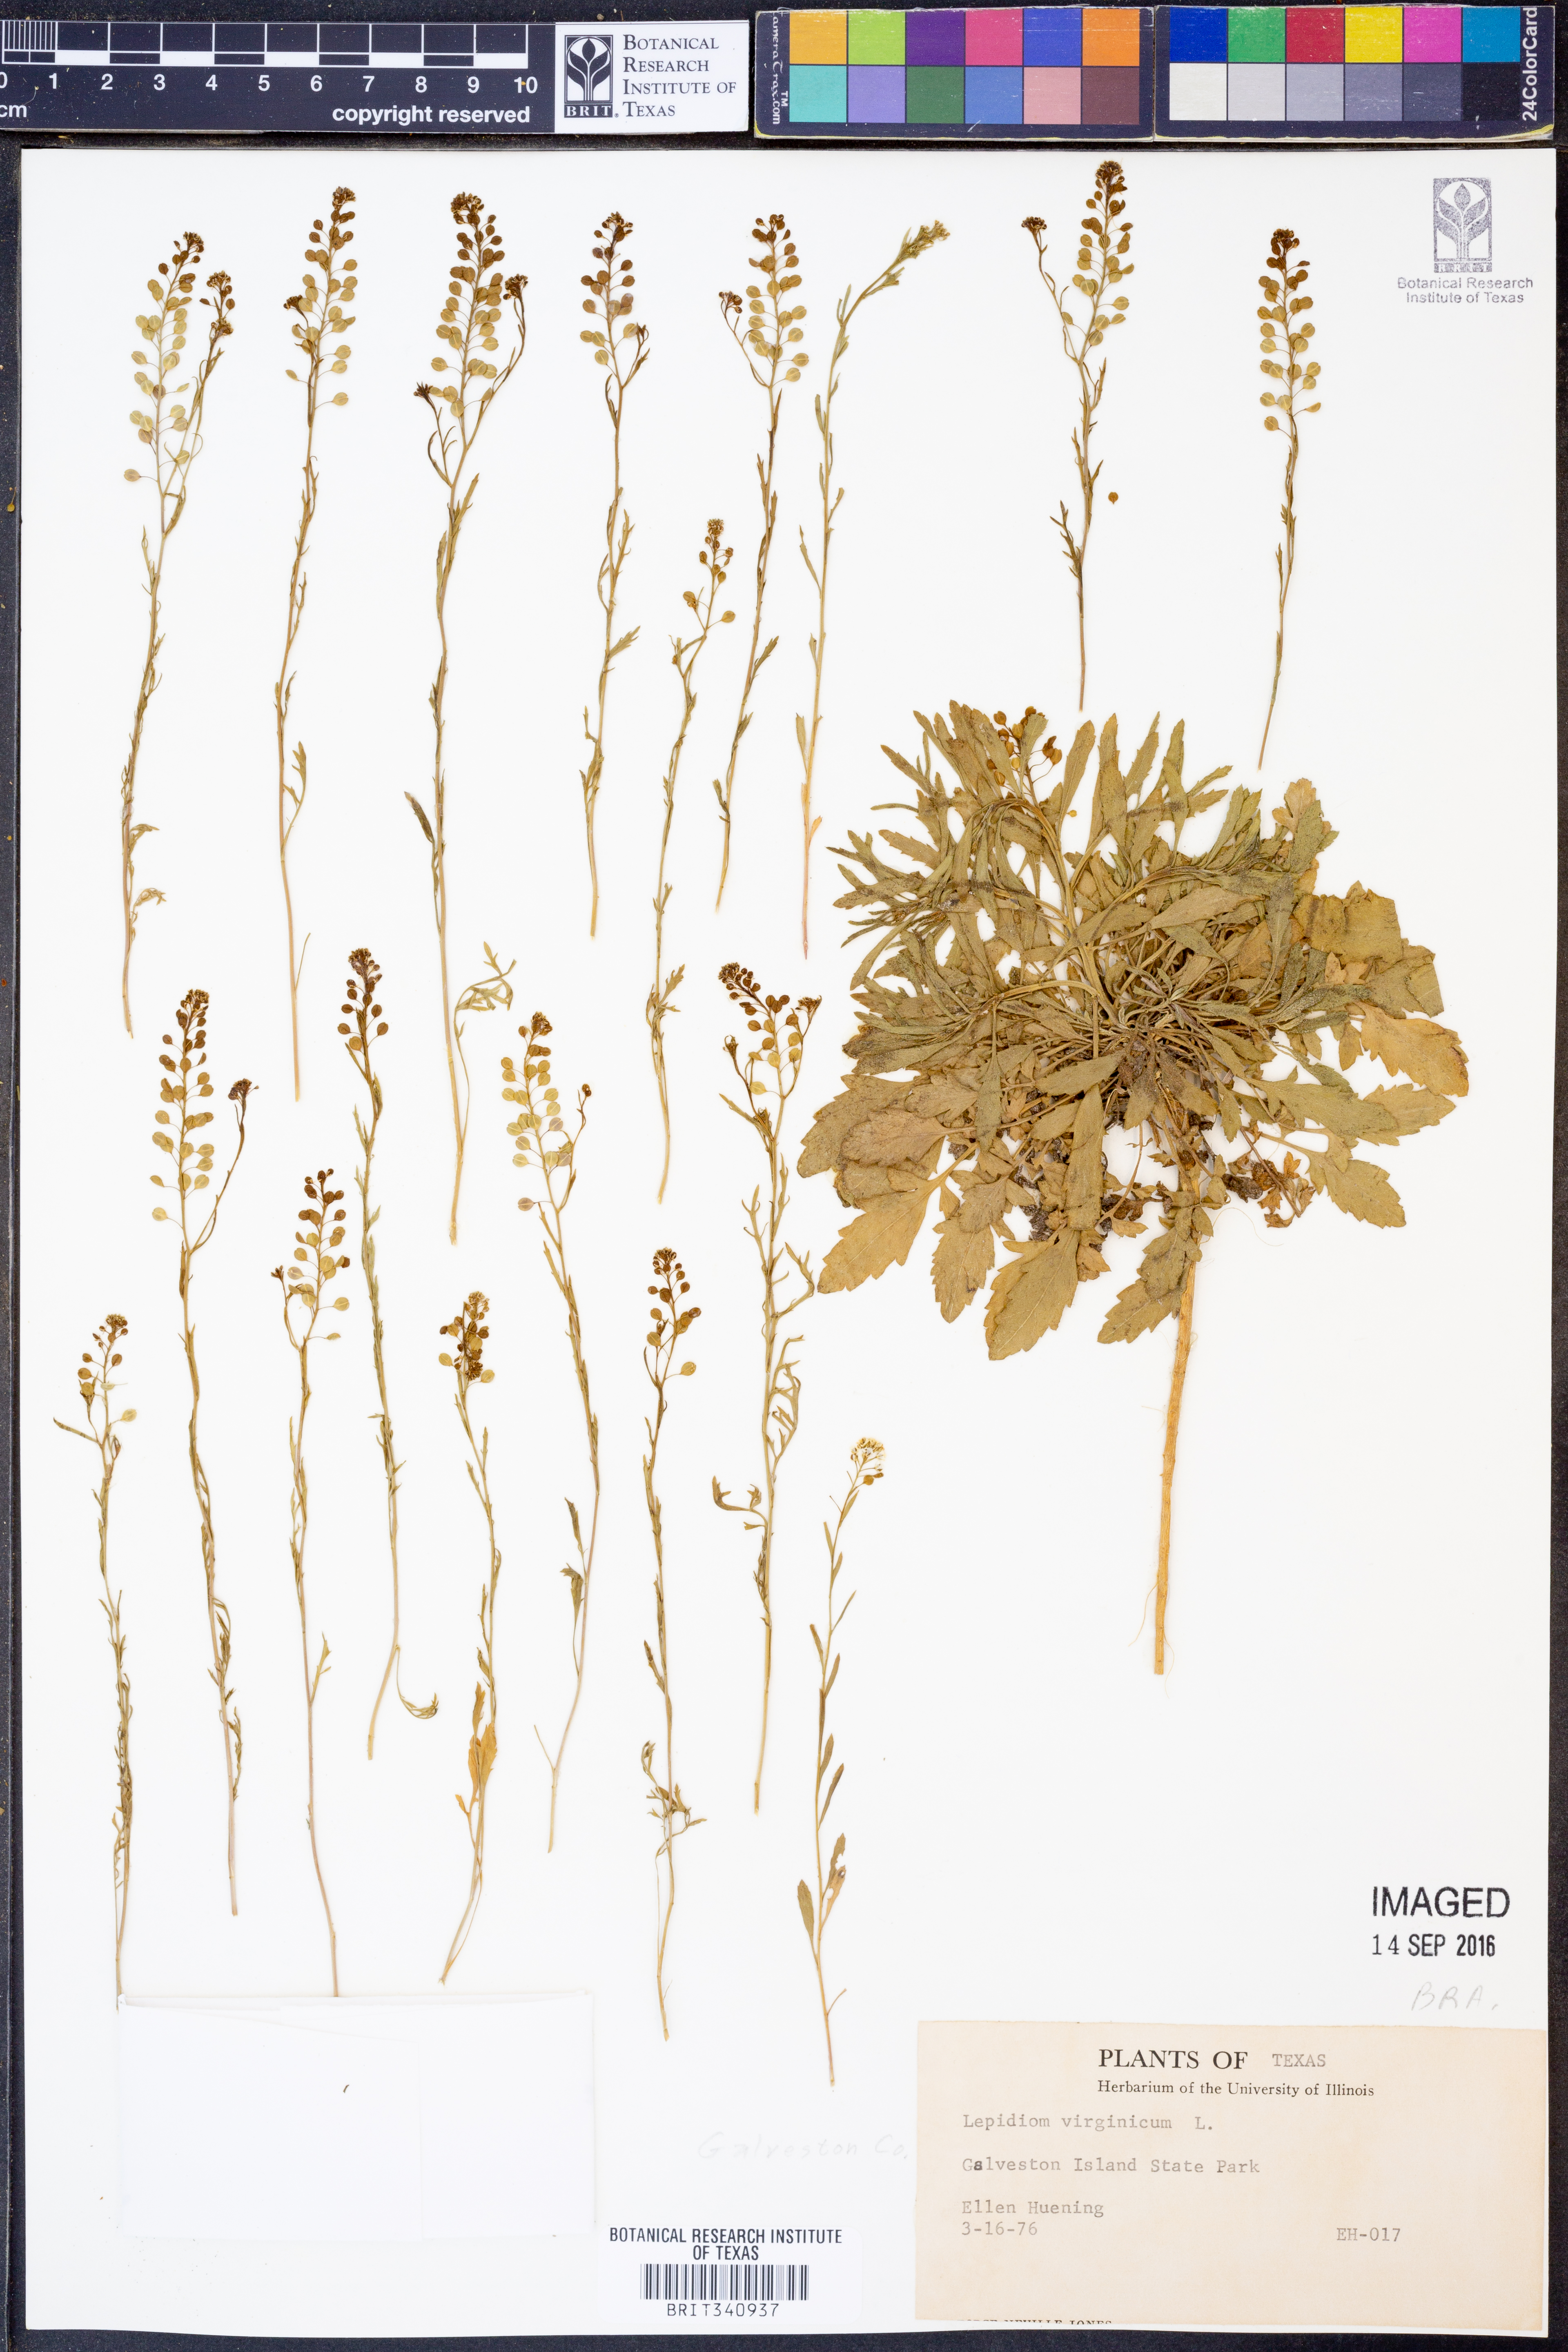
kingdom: Plantae
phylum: Tracheophyta
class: Magnoliopsida
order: Brassicales
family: Brassicaceae
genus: Lepidium
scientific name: Lepidium virginicum
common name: Least pepperwort
